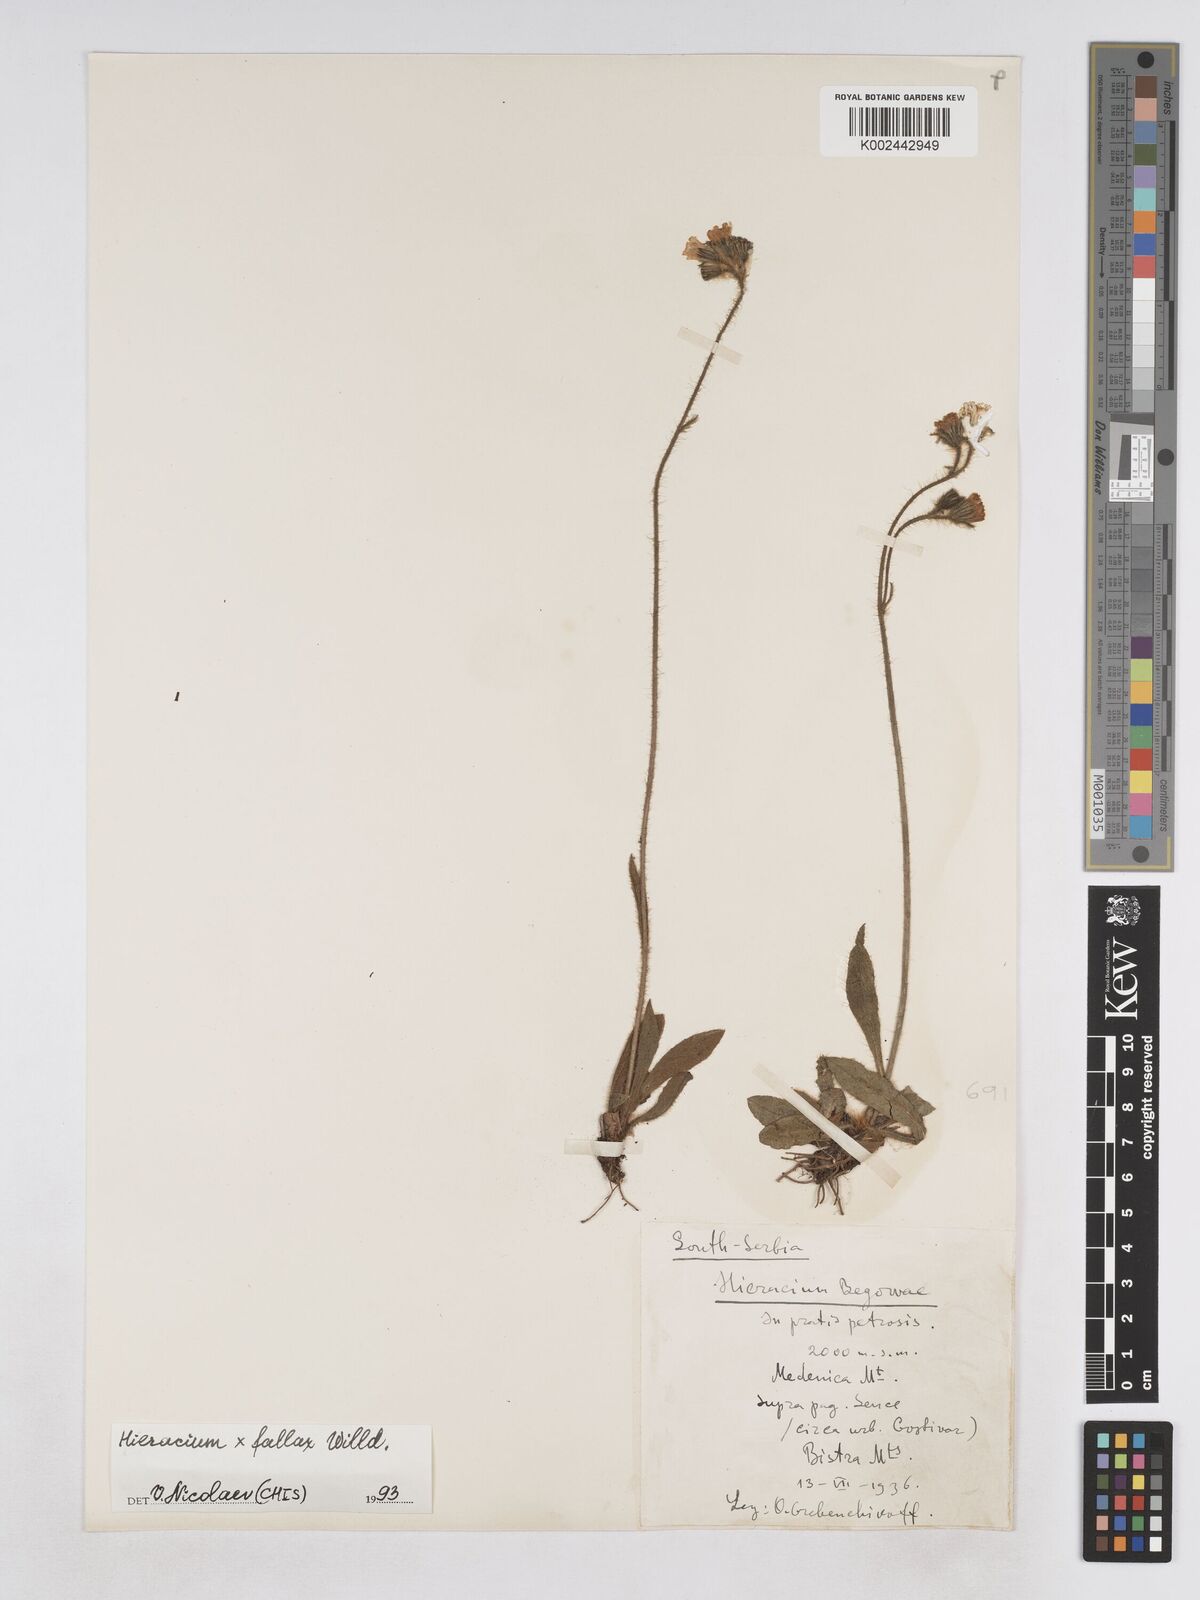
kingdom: Plantae
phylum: Tracheophyta
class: Magnoliopsida
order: Asterales
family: Asteraceae
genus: Pilosella
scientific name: Pilosella fallax
